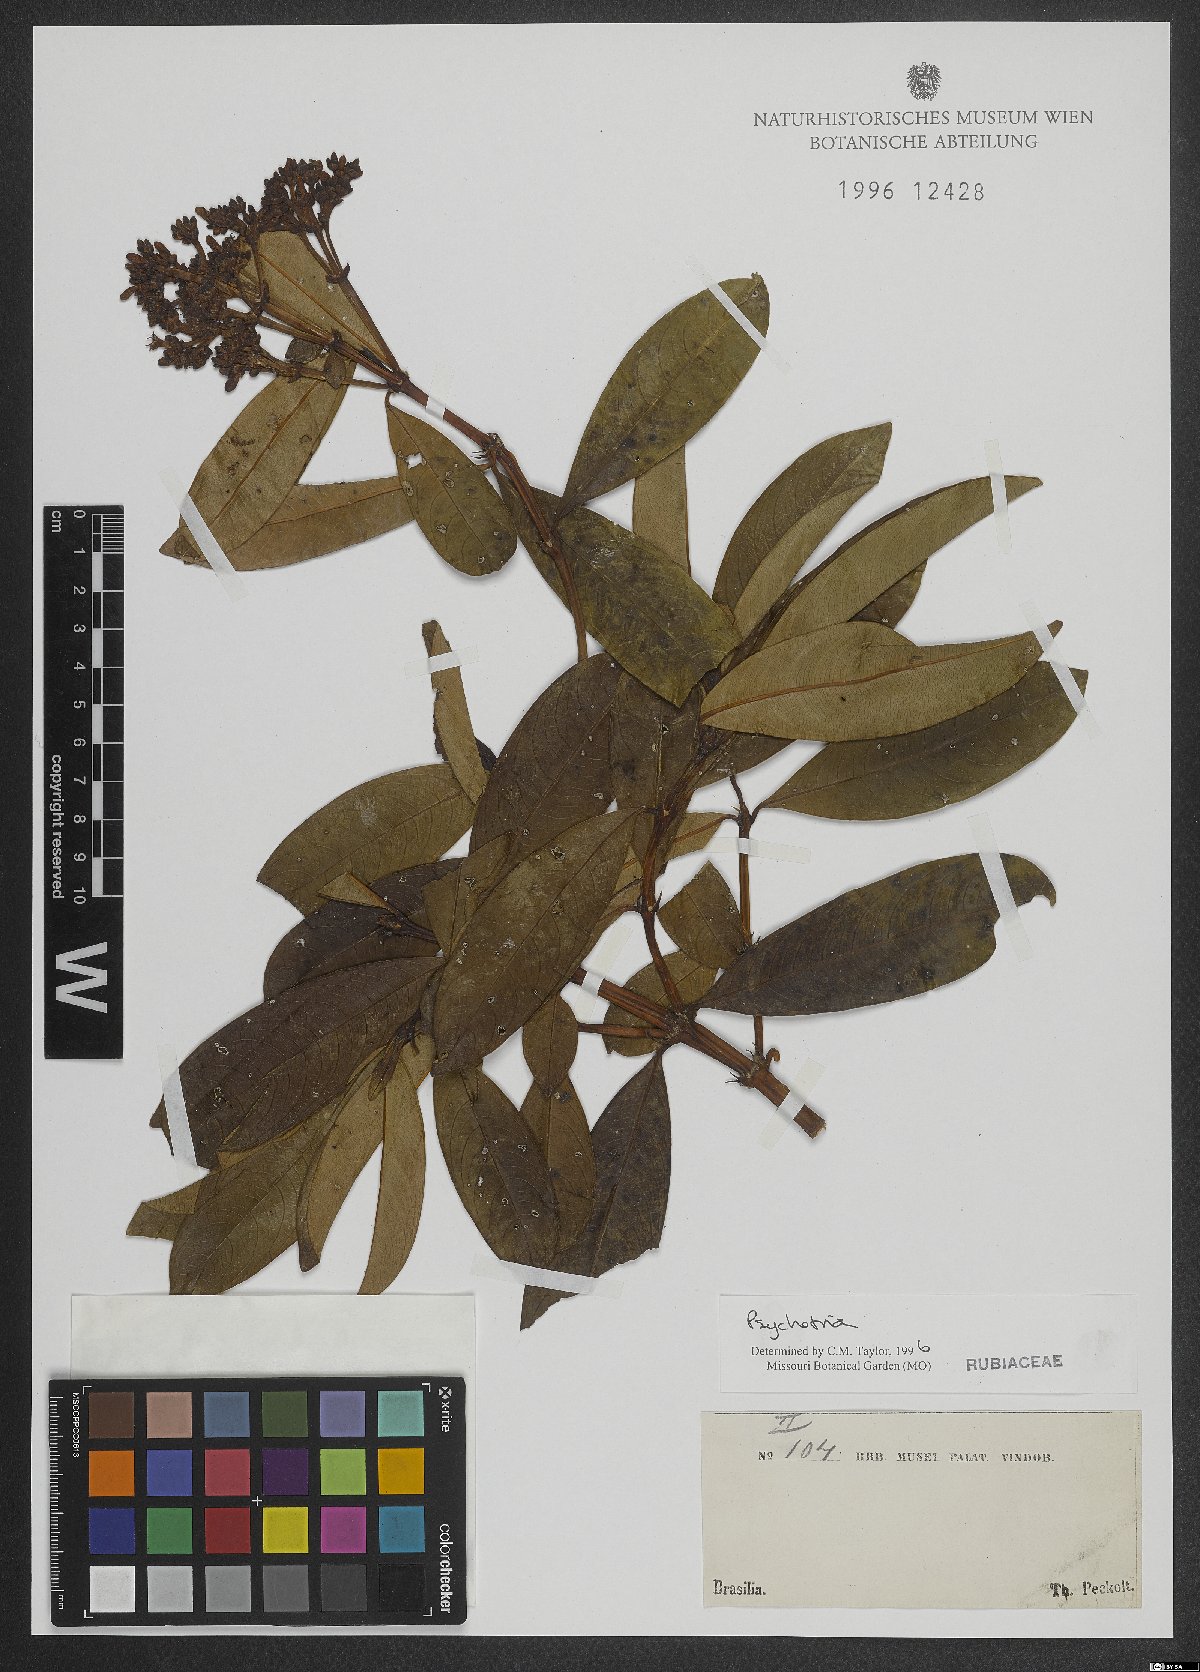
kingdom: Plantae
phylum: Tracheophyta
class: Magnoliopsida
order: Gentianales
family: Rubiaceae
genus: Psychotria
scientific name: Psychotria
